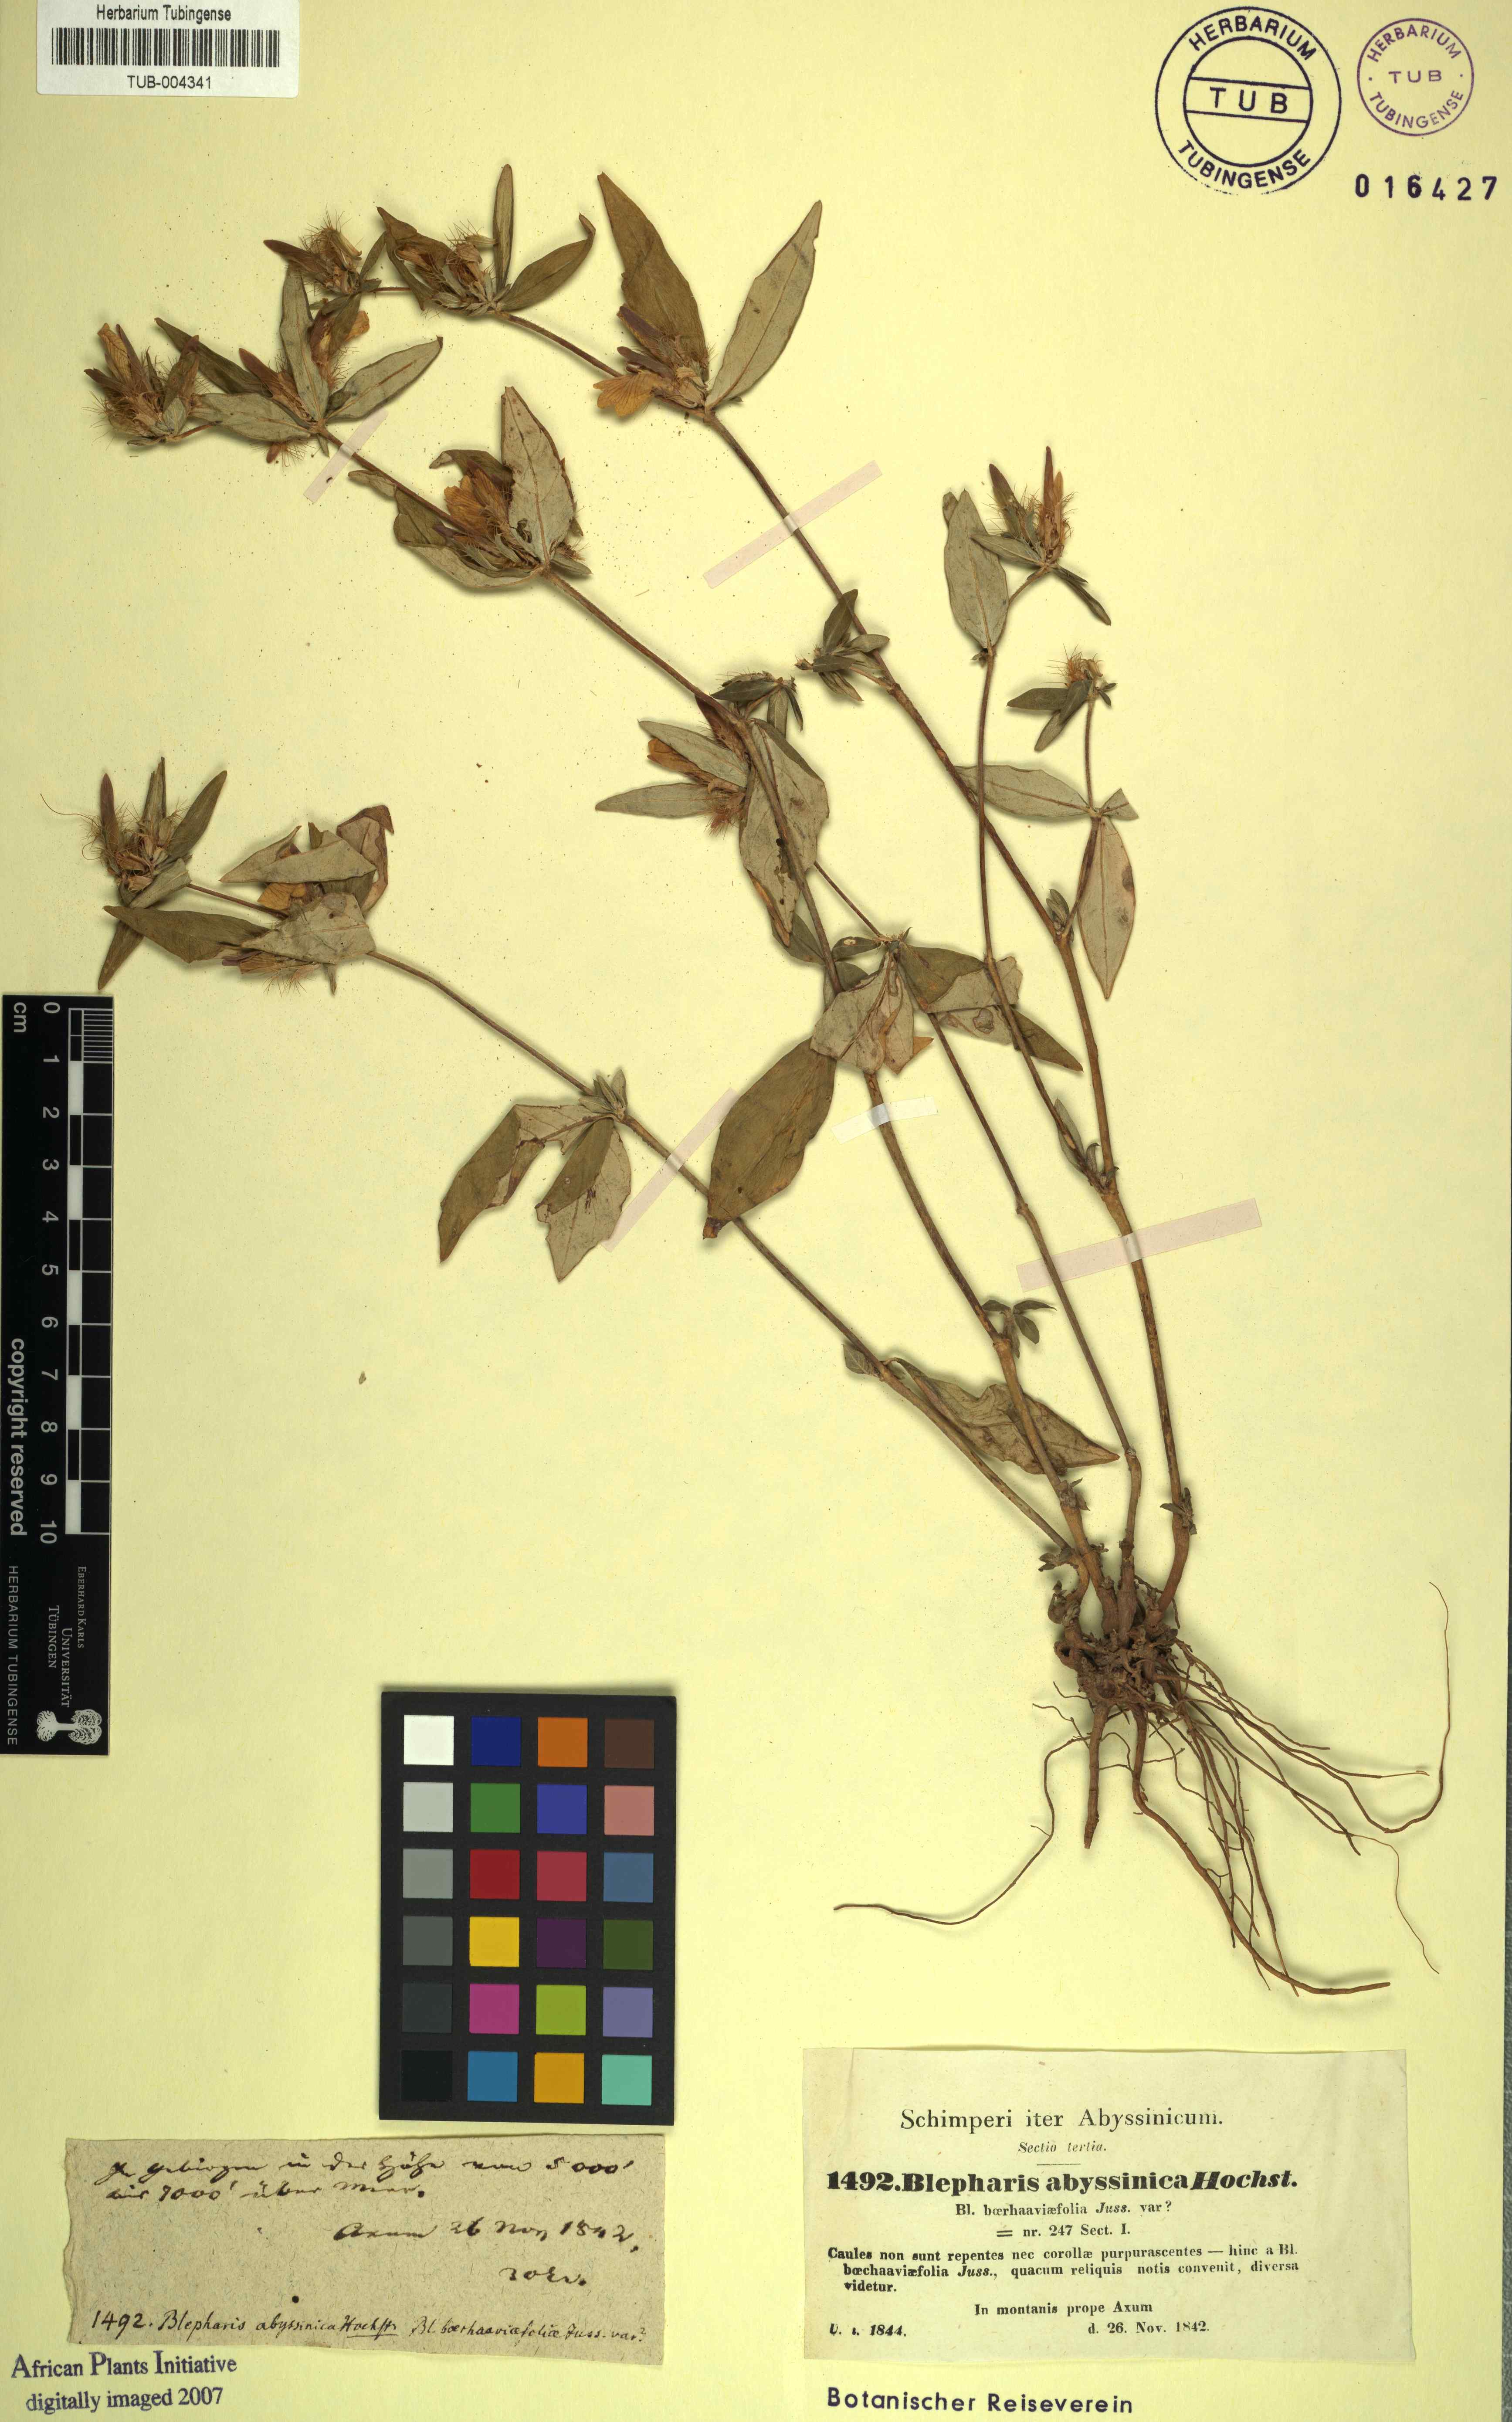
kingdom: Plantae
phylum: Tracheophyta
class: Magnoliopsida
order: Lamiales
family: Acanthaceae
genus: Blepharis
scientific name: Blepharis maderaspatensis
